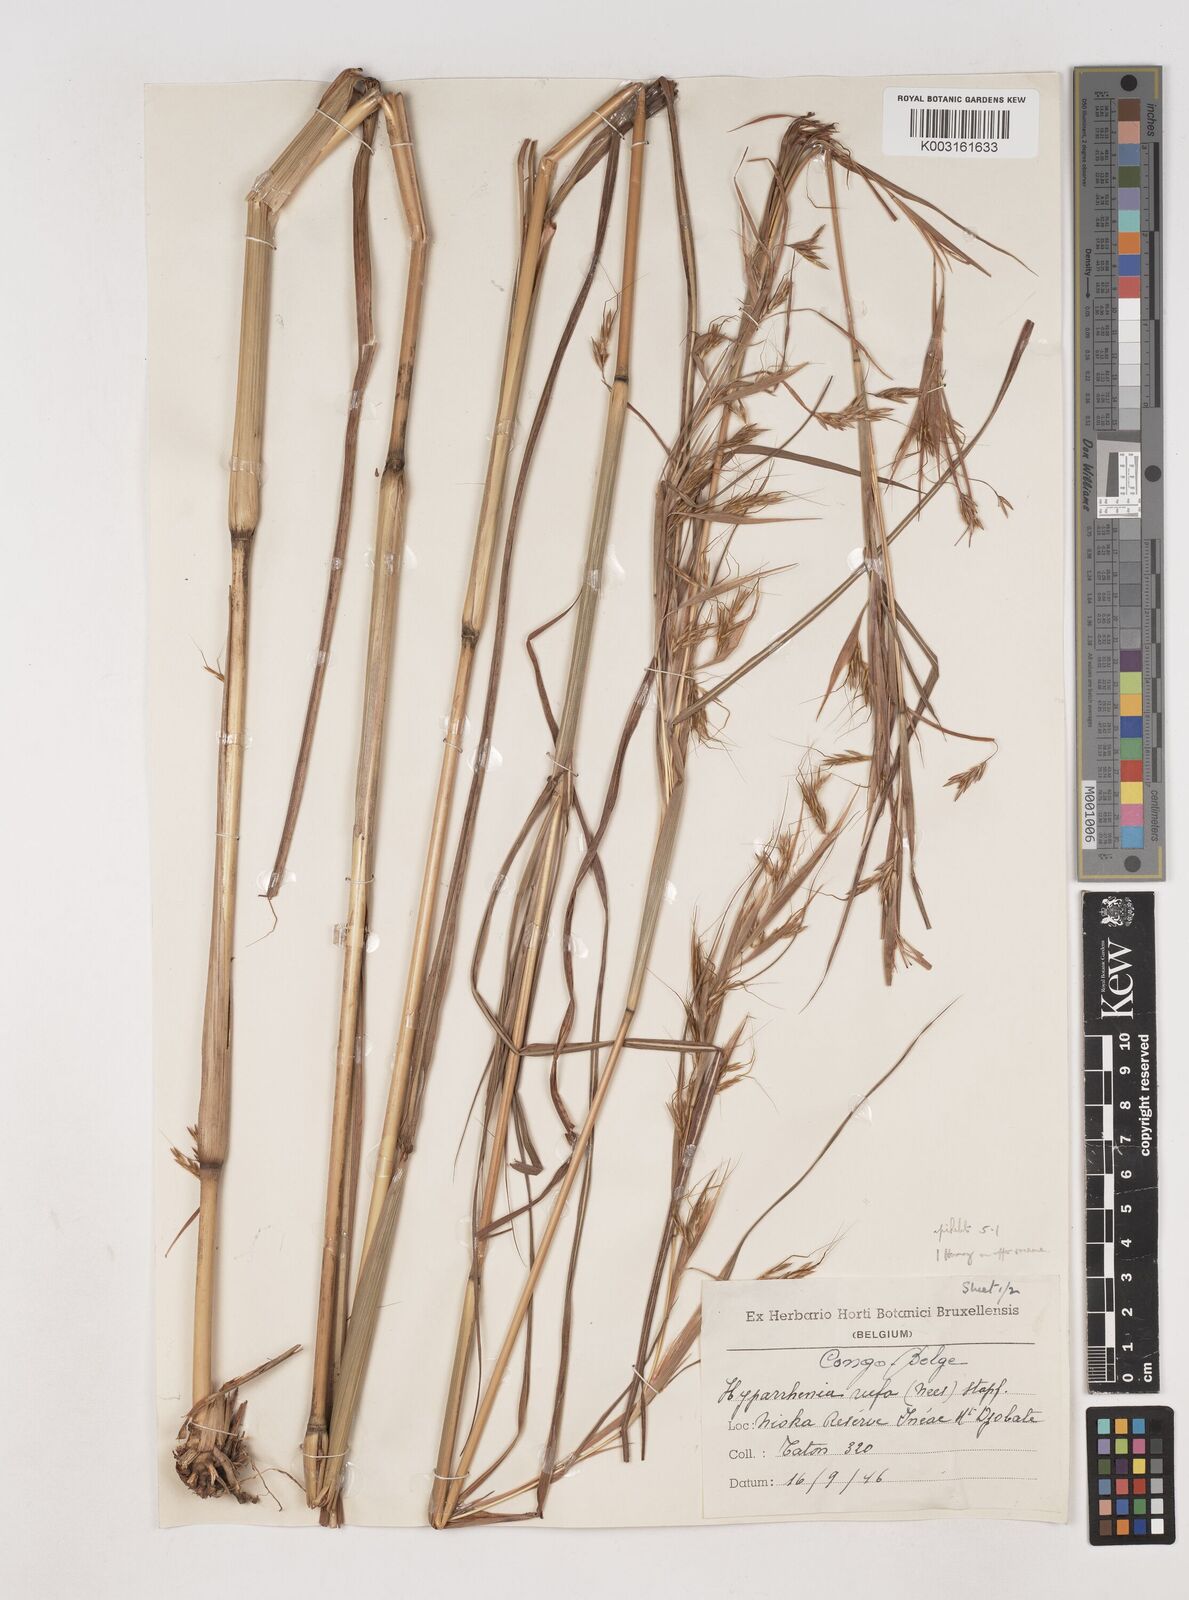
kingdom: Plantae
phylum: Tracheophyta
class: Liliopsida
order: Poales
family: Poaceae
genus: Hyparrhenia
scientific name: Hyparrhenia rufa
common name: Jaraguagrass
